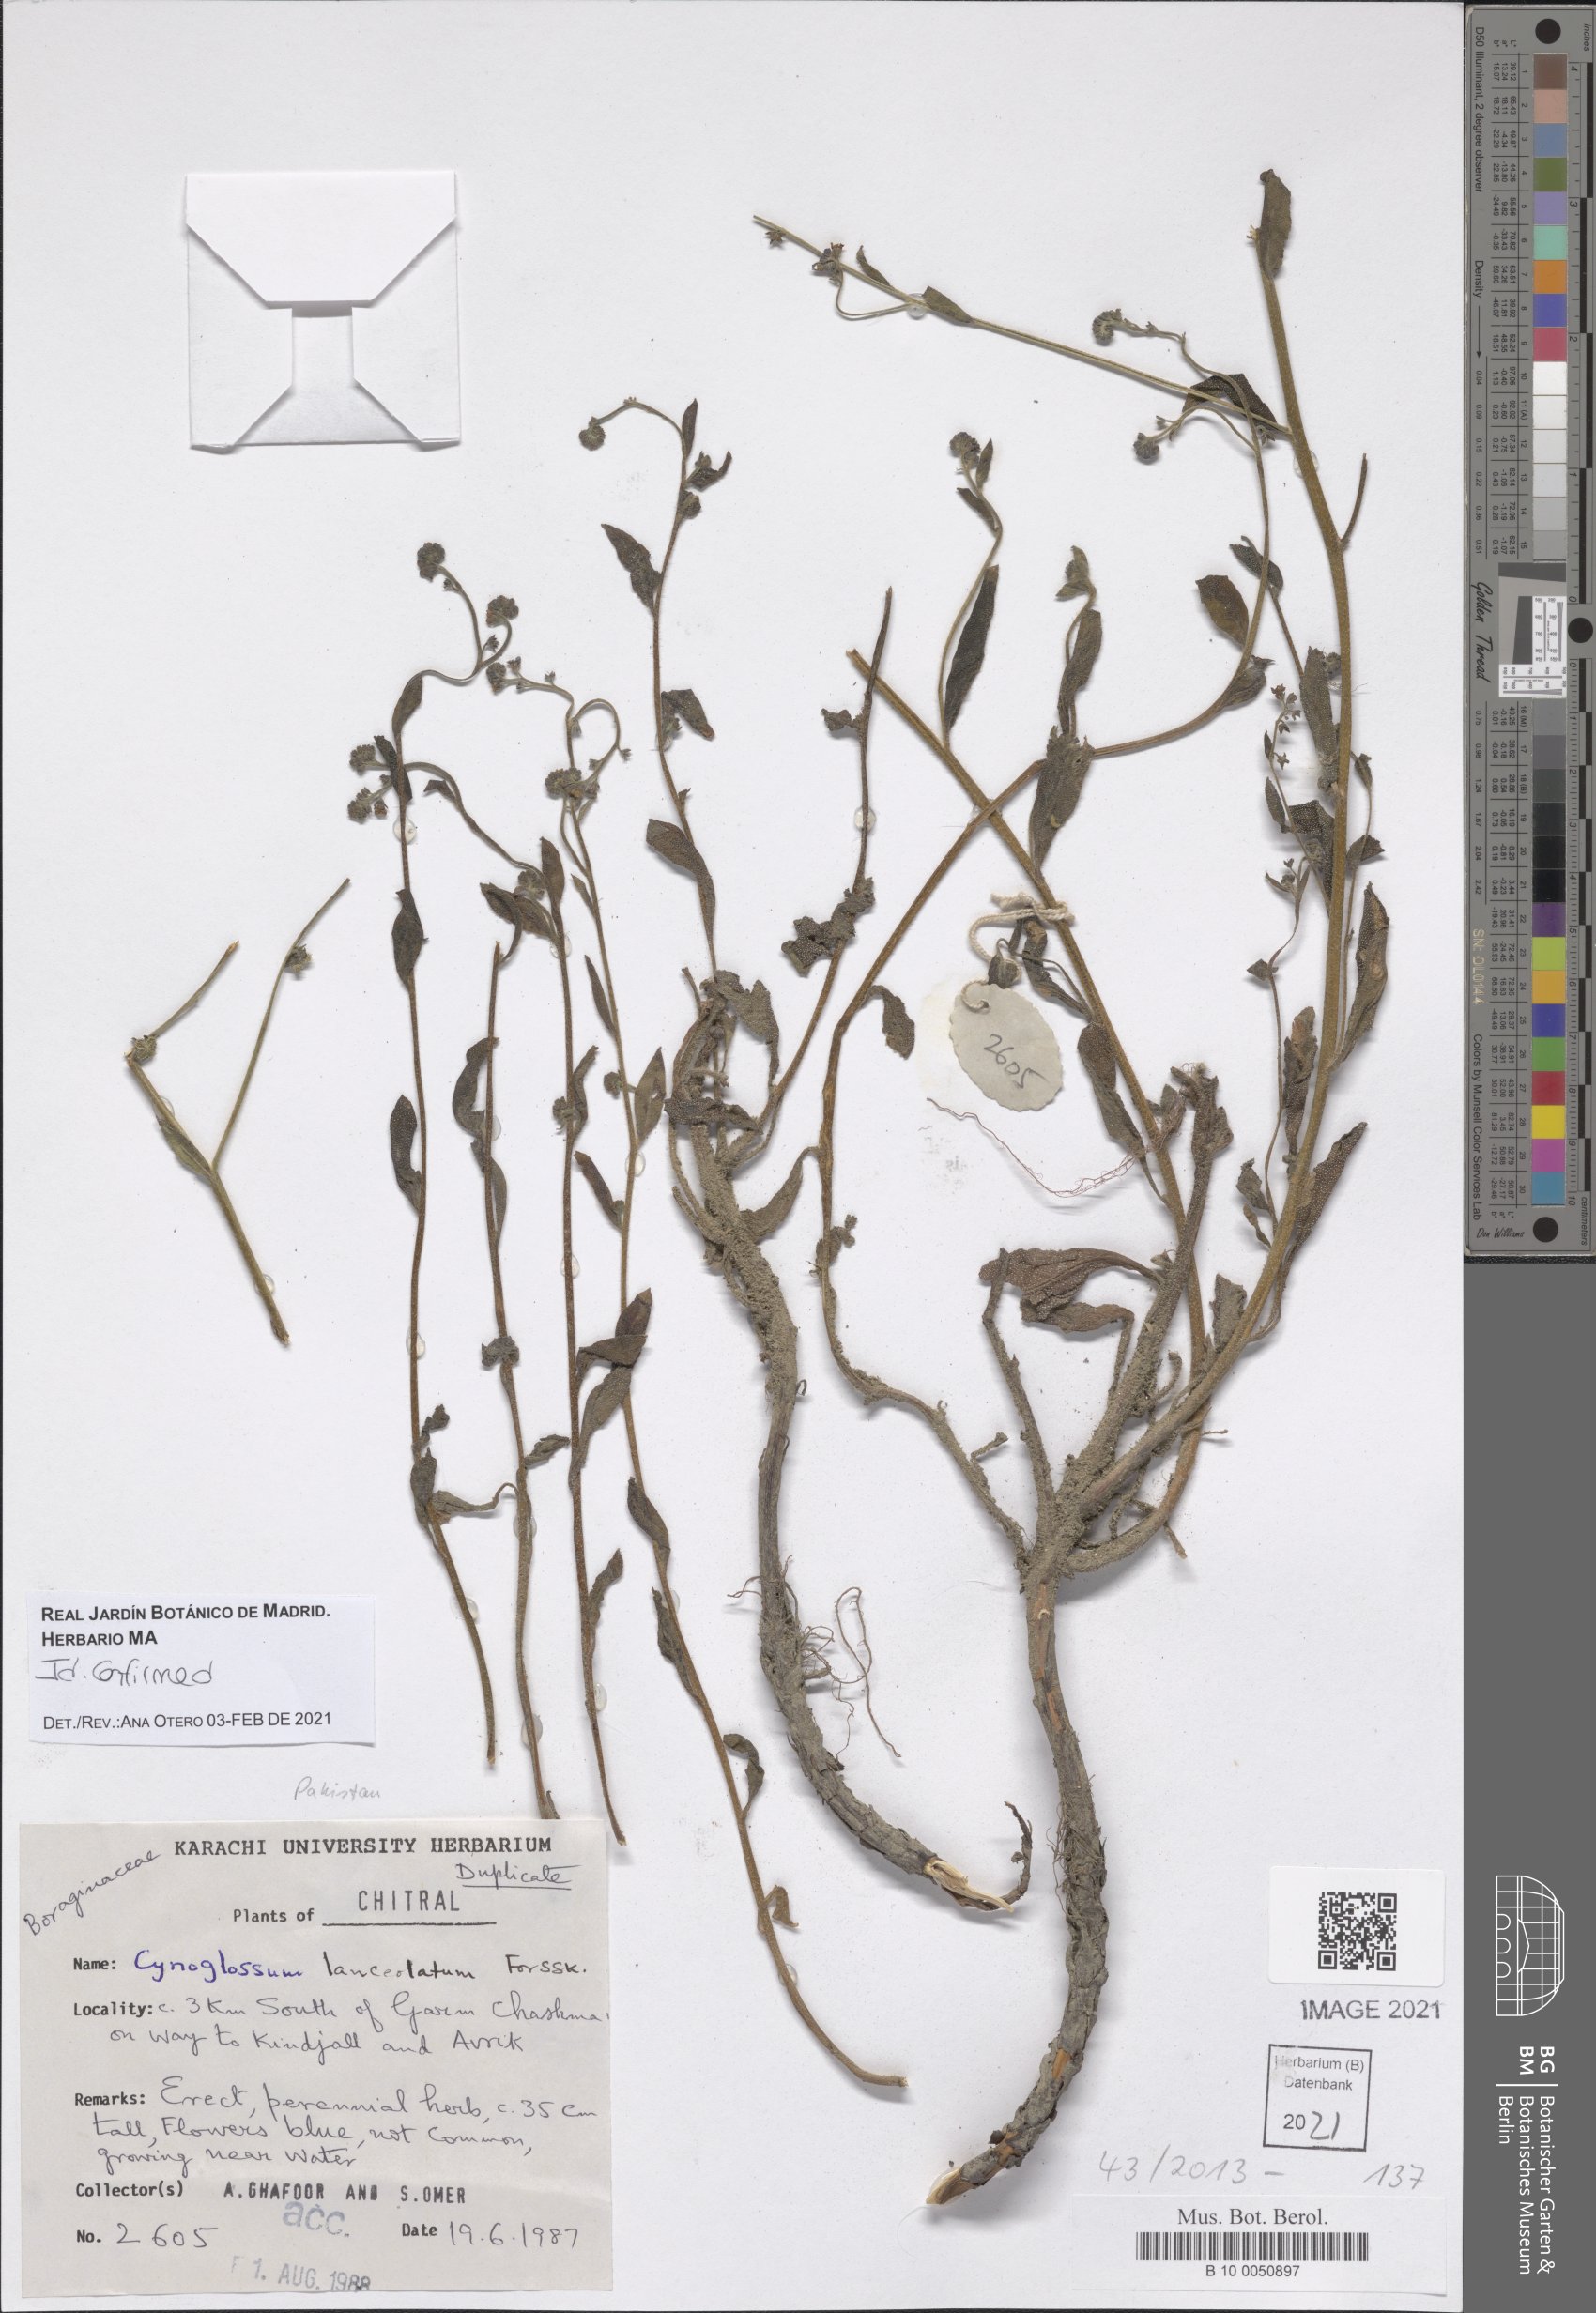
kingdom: Plantae
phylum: Tracheophyta
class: Magnoliopsida
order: Boraginales
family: Boraginaceae
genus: Paracynoglossum
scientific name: Paracynoglossum lanceolatum
